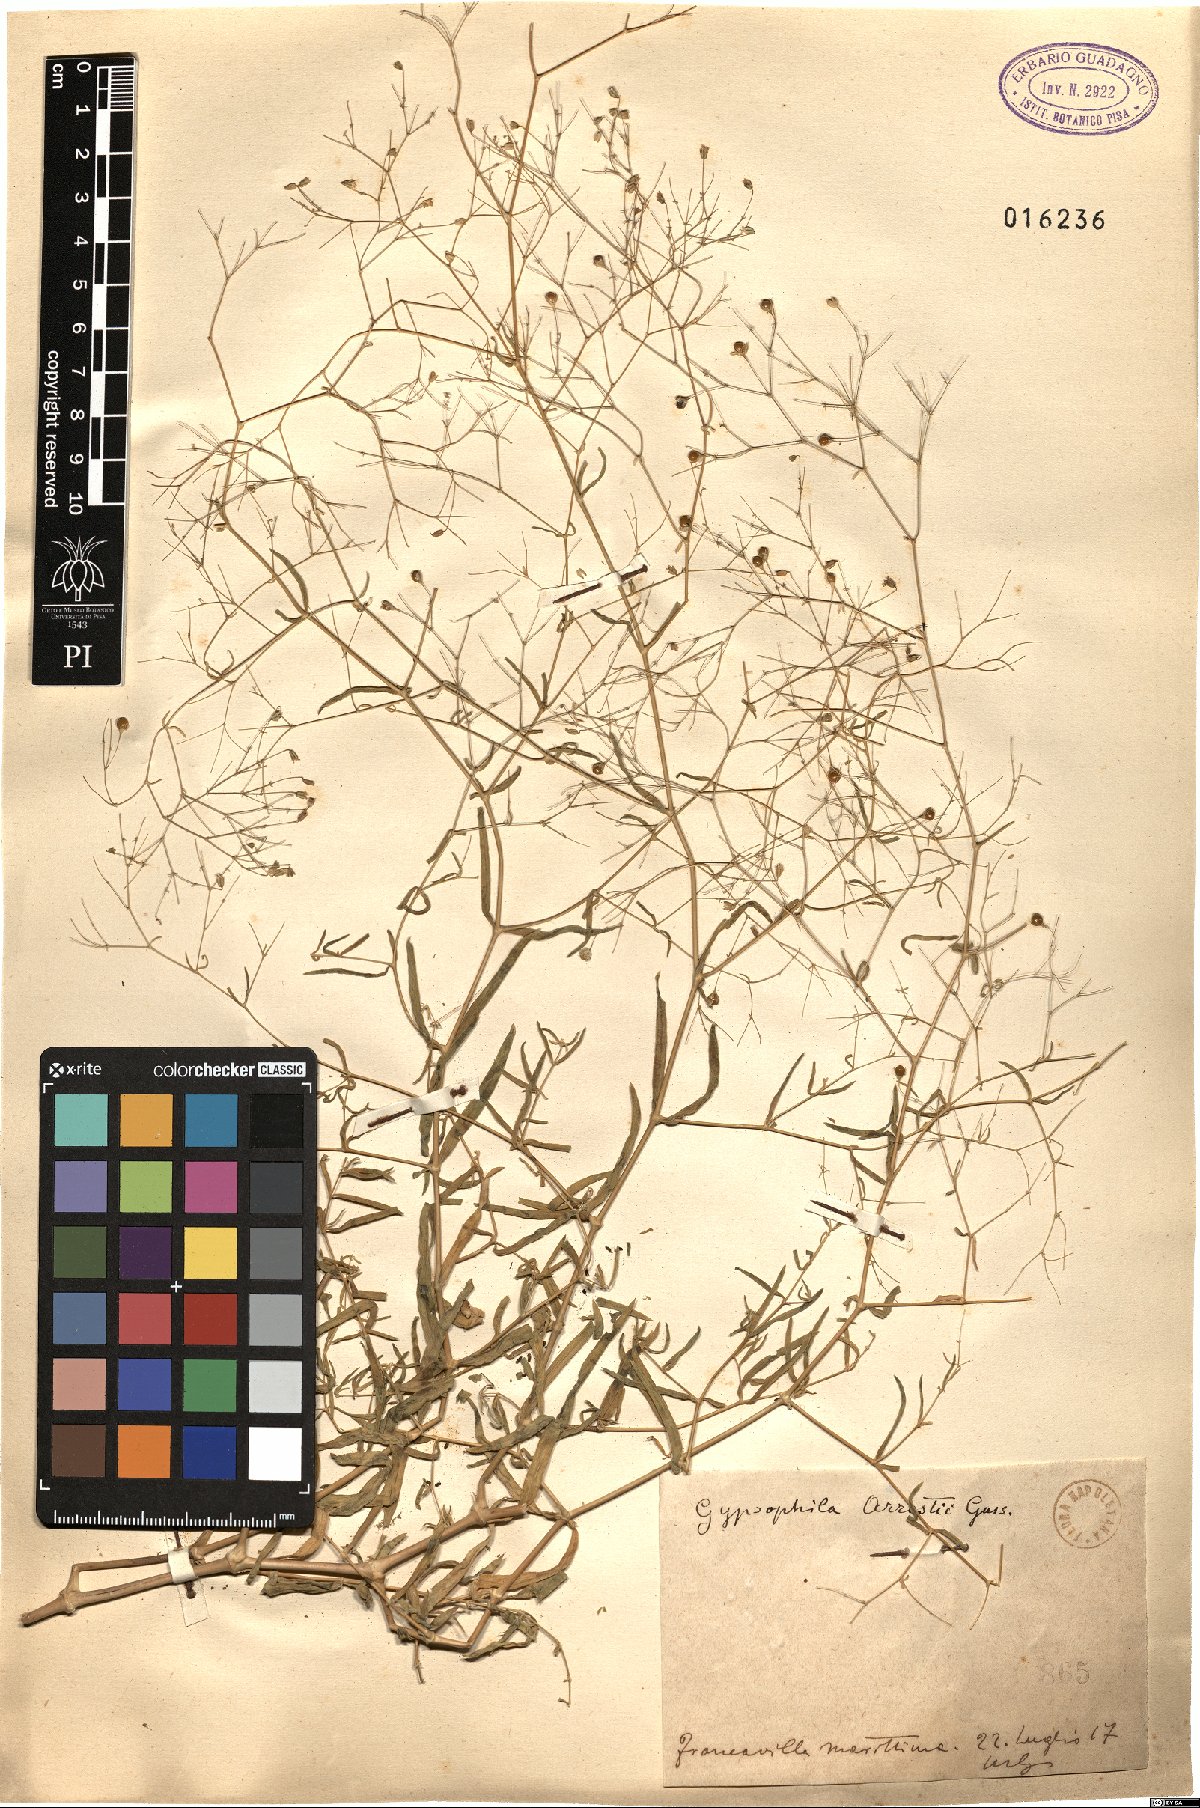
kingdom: Plantae
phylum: Tracheophyta
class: Magnoliopsida
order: Caryophyllales
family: Caryophyllaceae
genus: Gypsophila
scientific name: Gypsophila arrostii
